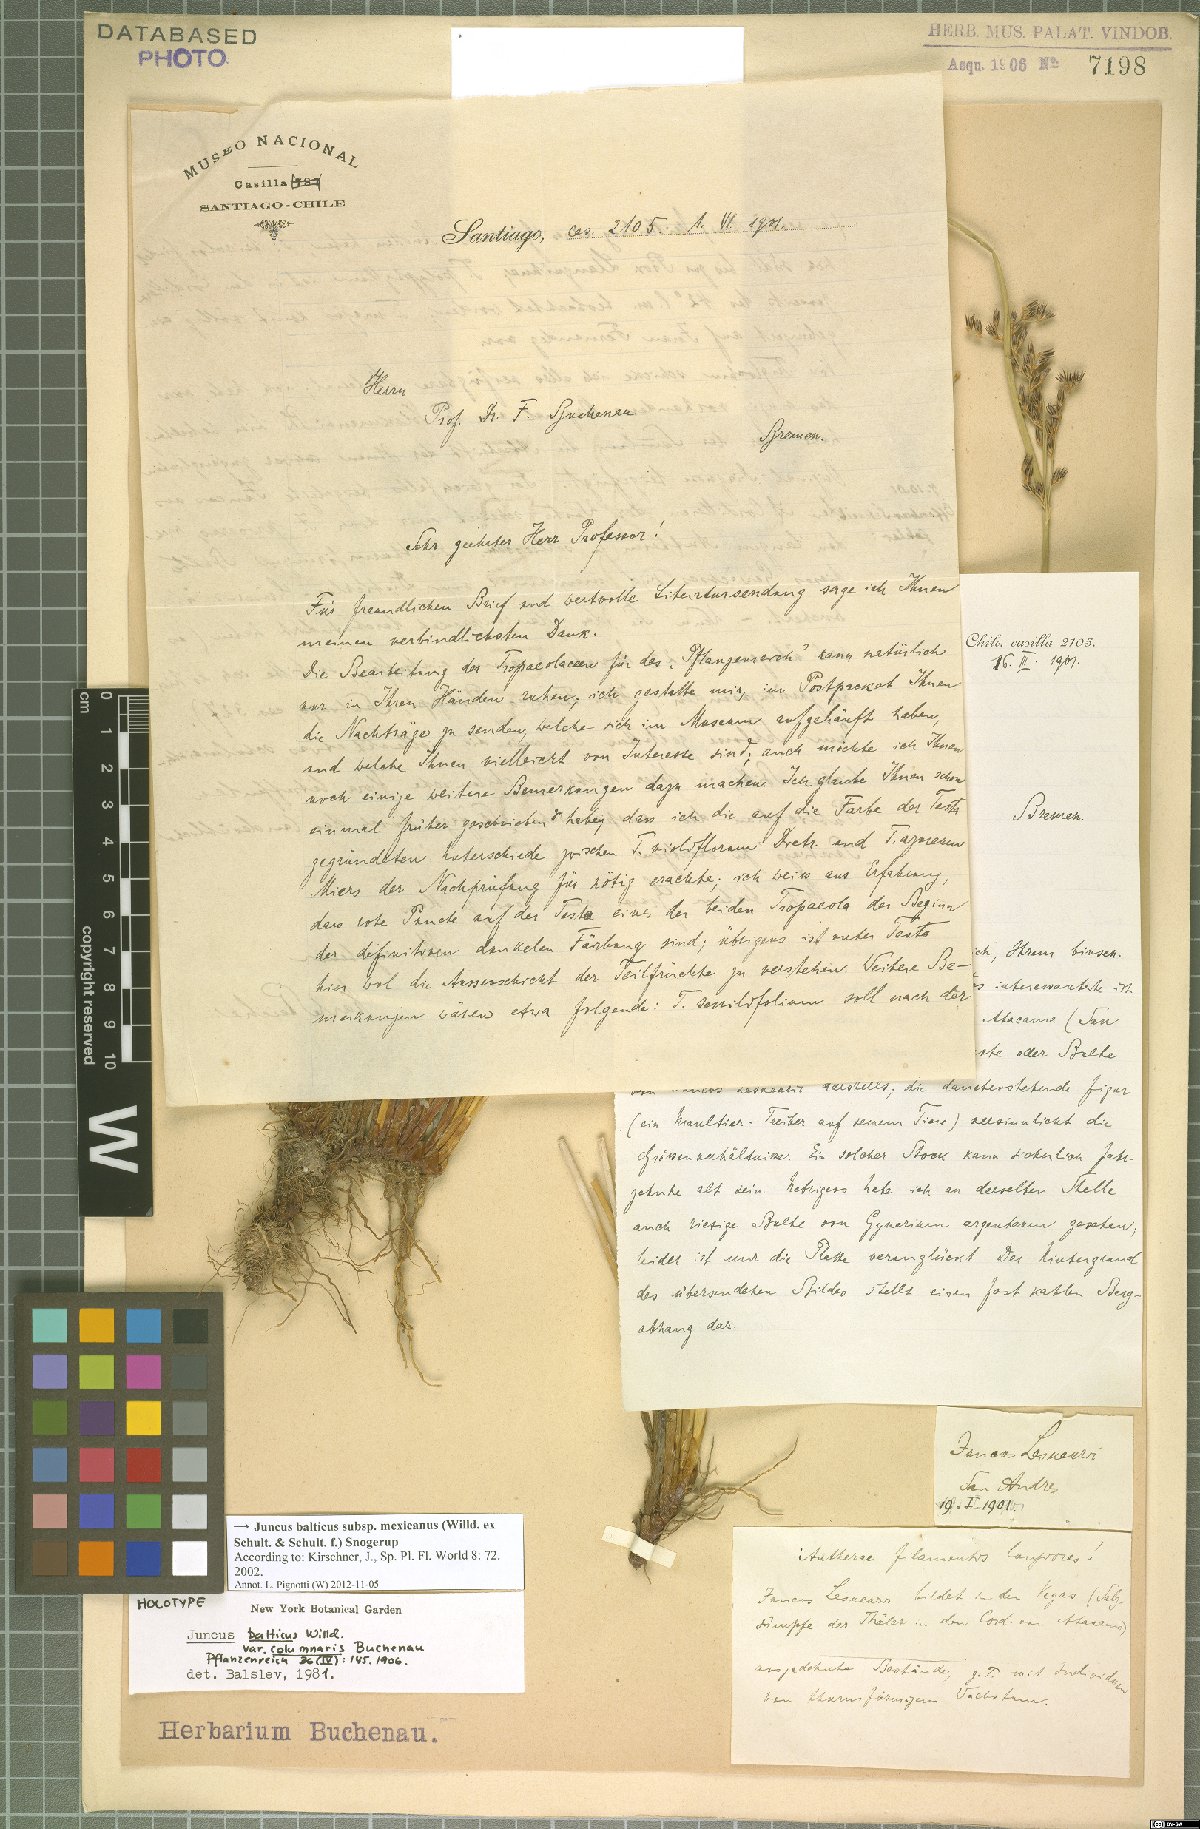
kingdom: Plantae
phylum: Tracheophyta
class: Liliopsida
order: Poales
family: Juncaceae
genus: Juncus
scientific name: Juncus balticus
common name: Baltic rush
